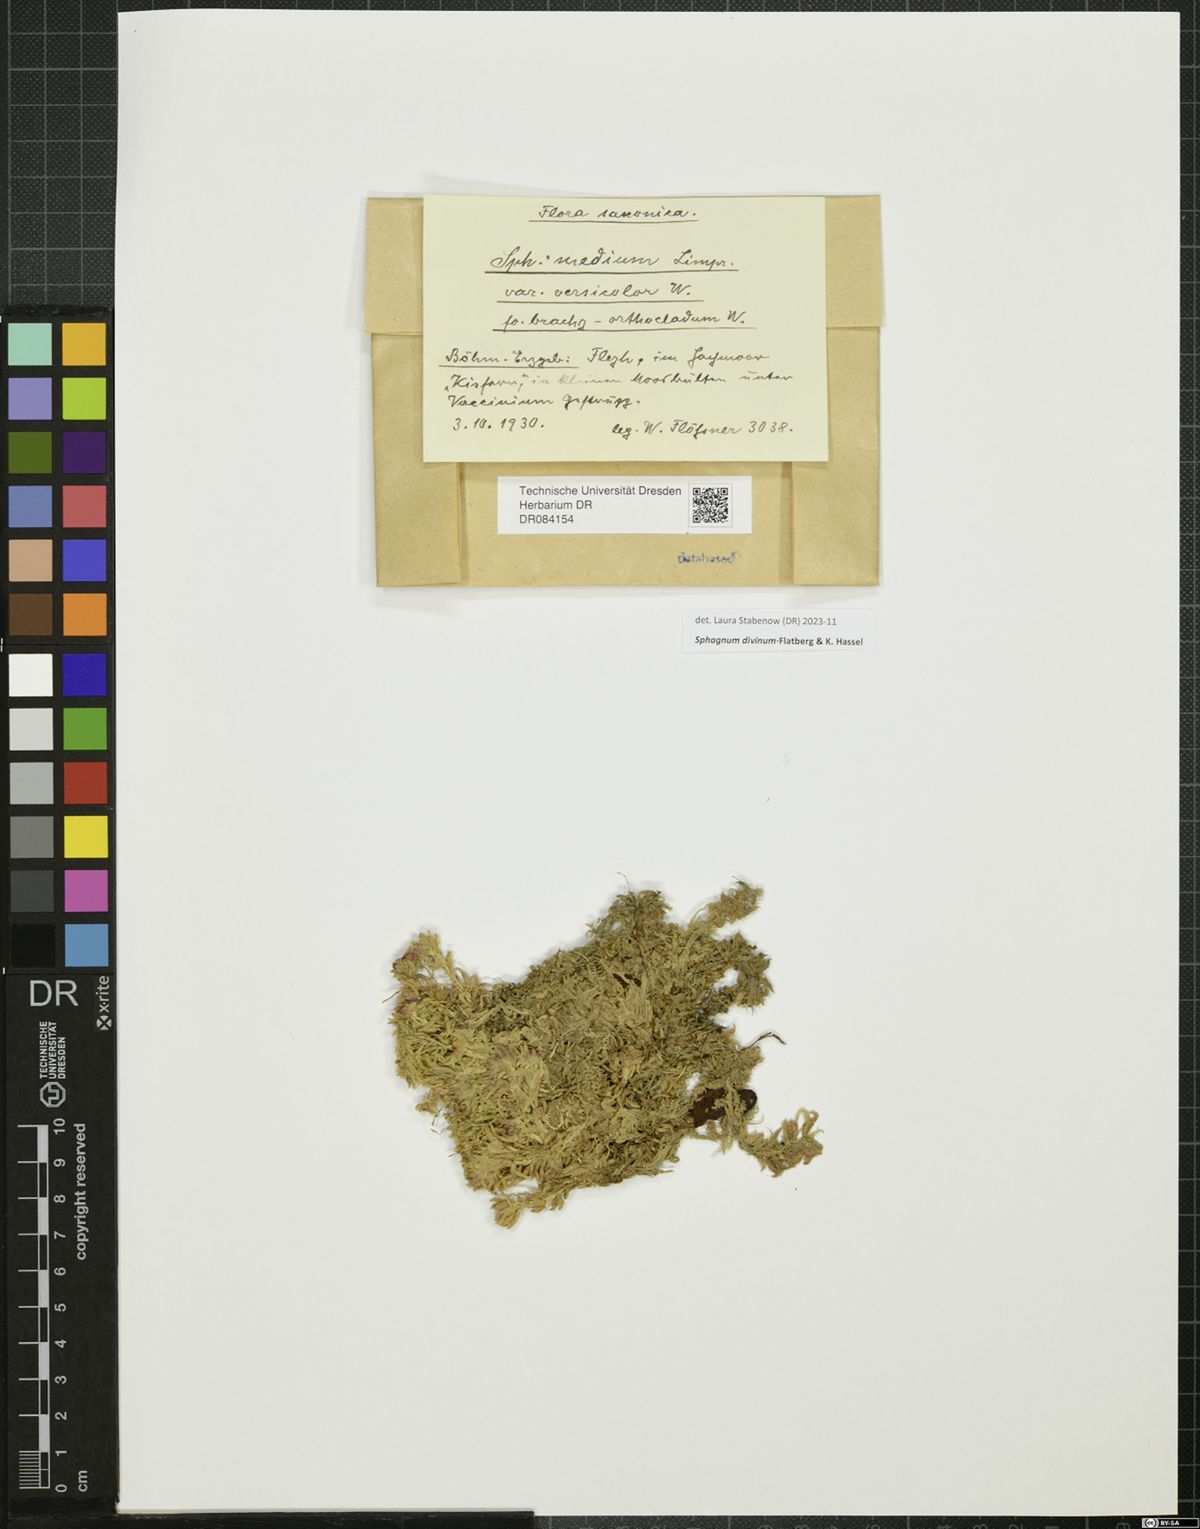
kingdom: Plantae
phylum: Bryophyta
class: Sphagnopsida
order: Sphagnales
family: Sphagnaceae
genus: Sphagnum
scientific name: Sphagnum divinum
